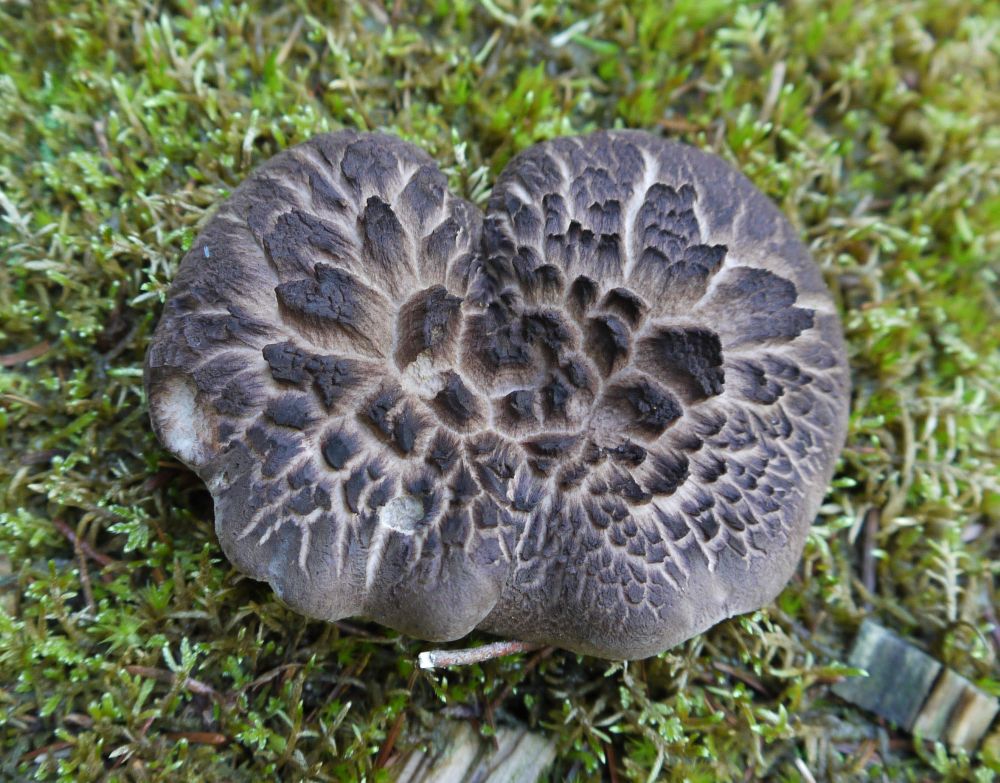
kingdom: Fungi
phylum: Basidiomycota
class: Agaricomycetes
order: Thelephorales
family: Bankeraceae
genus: Sarcodon
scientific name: Sarcodon squamosus
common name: småskællet kødpigsvamp
